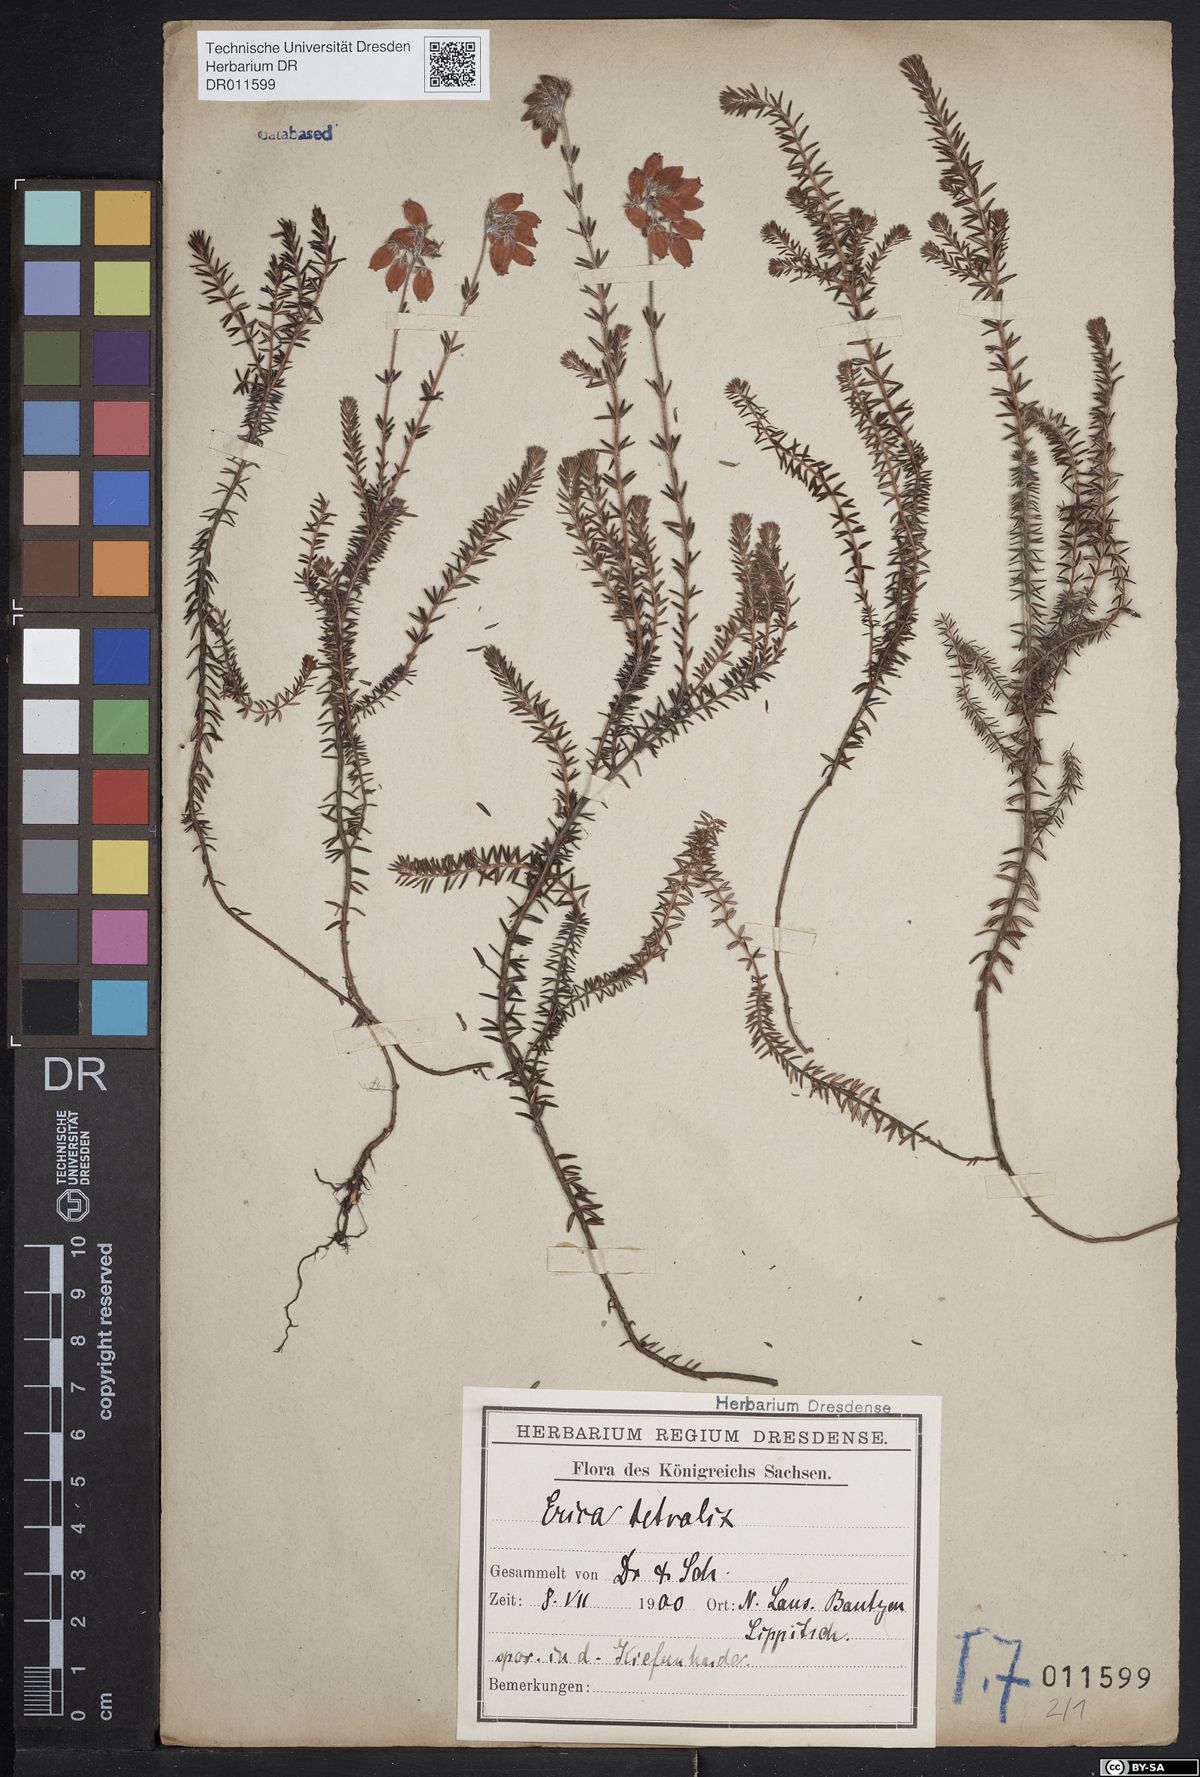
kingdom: Plantae
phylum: Tracheophyta
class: Magnoliopsida
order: Ericales
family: Ericaceae
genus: Erica
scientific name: Erica tetralix
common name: Cross-leaved heath
